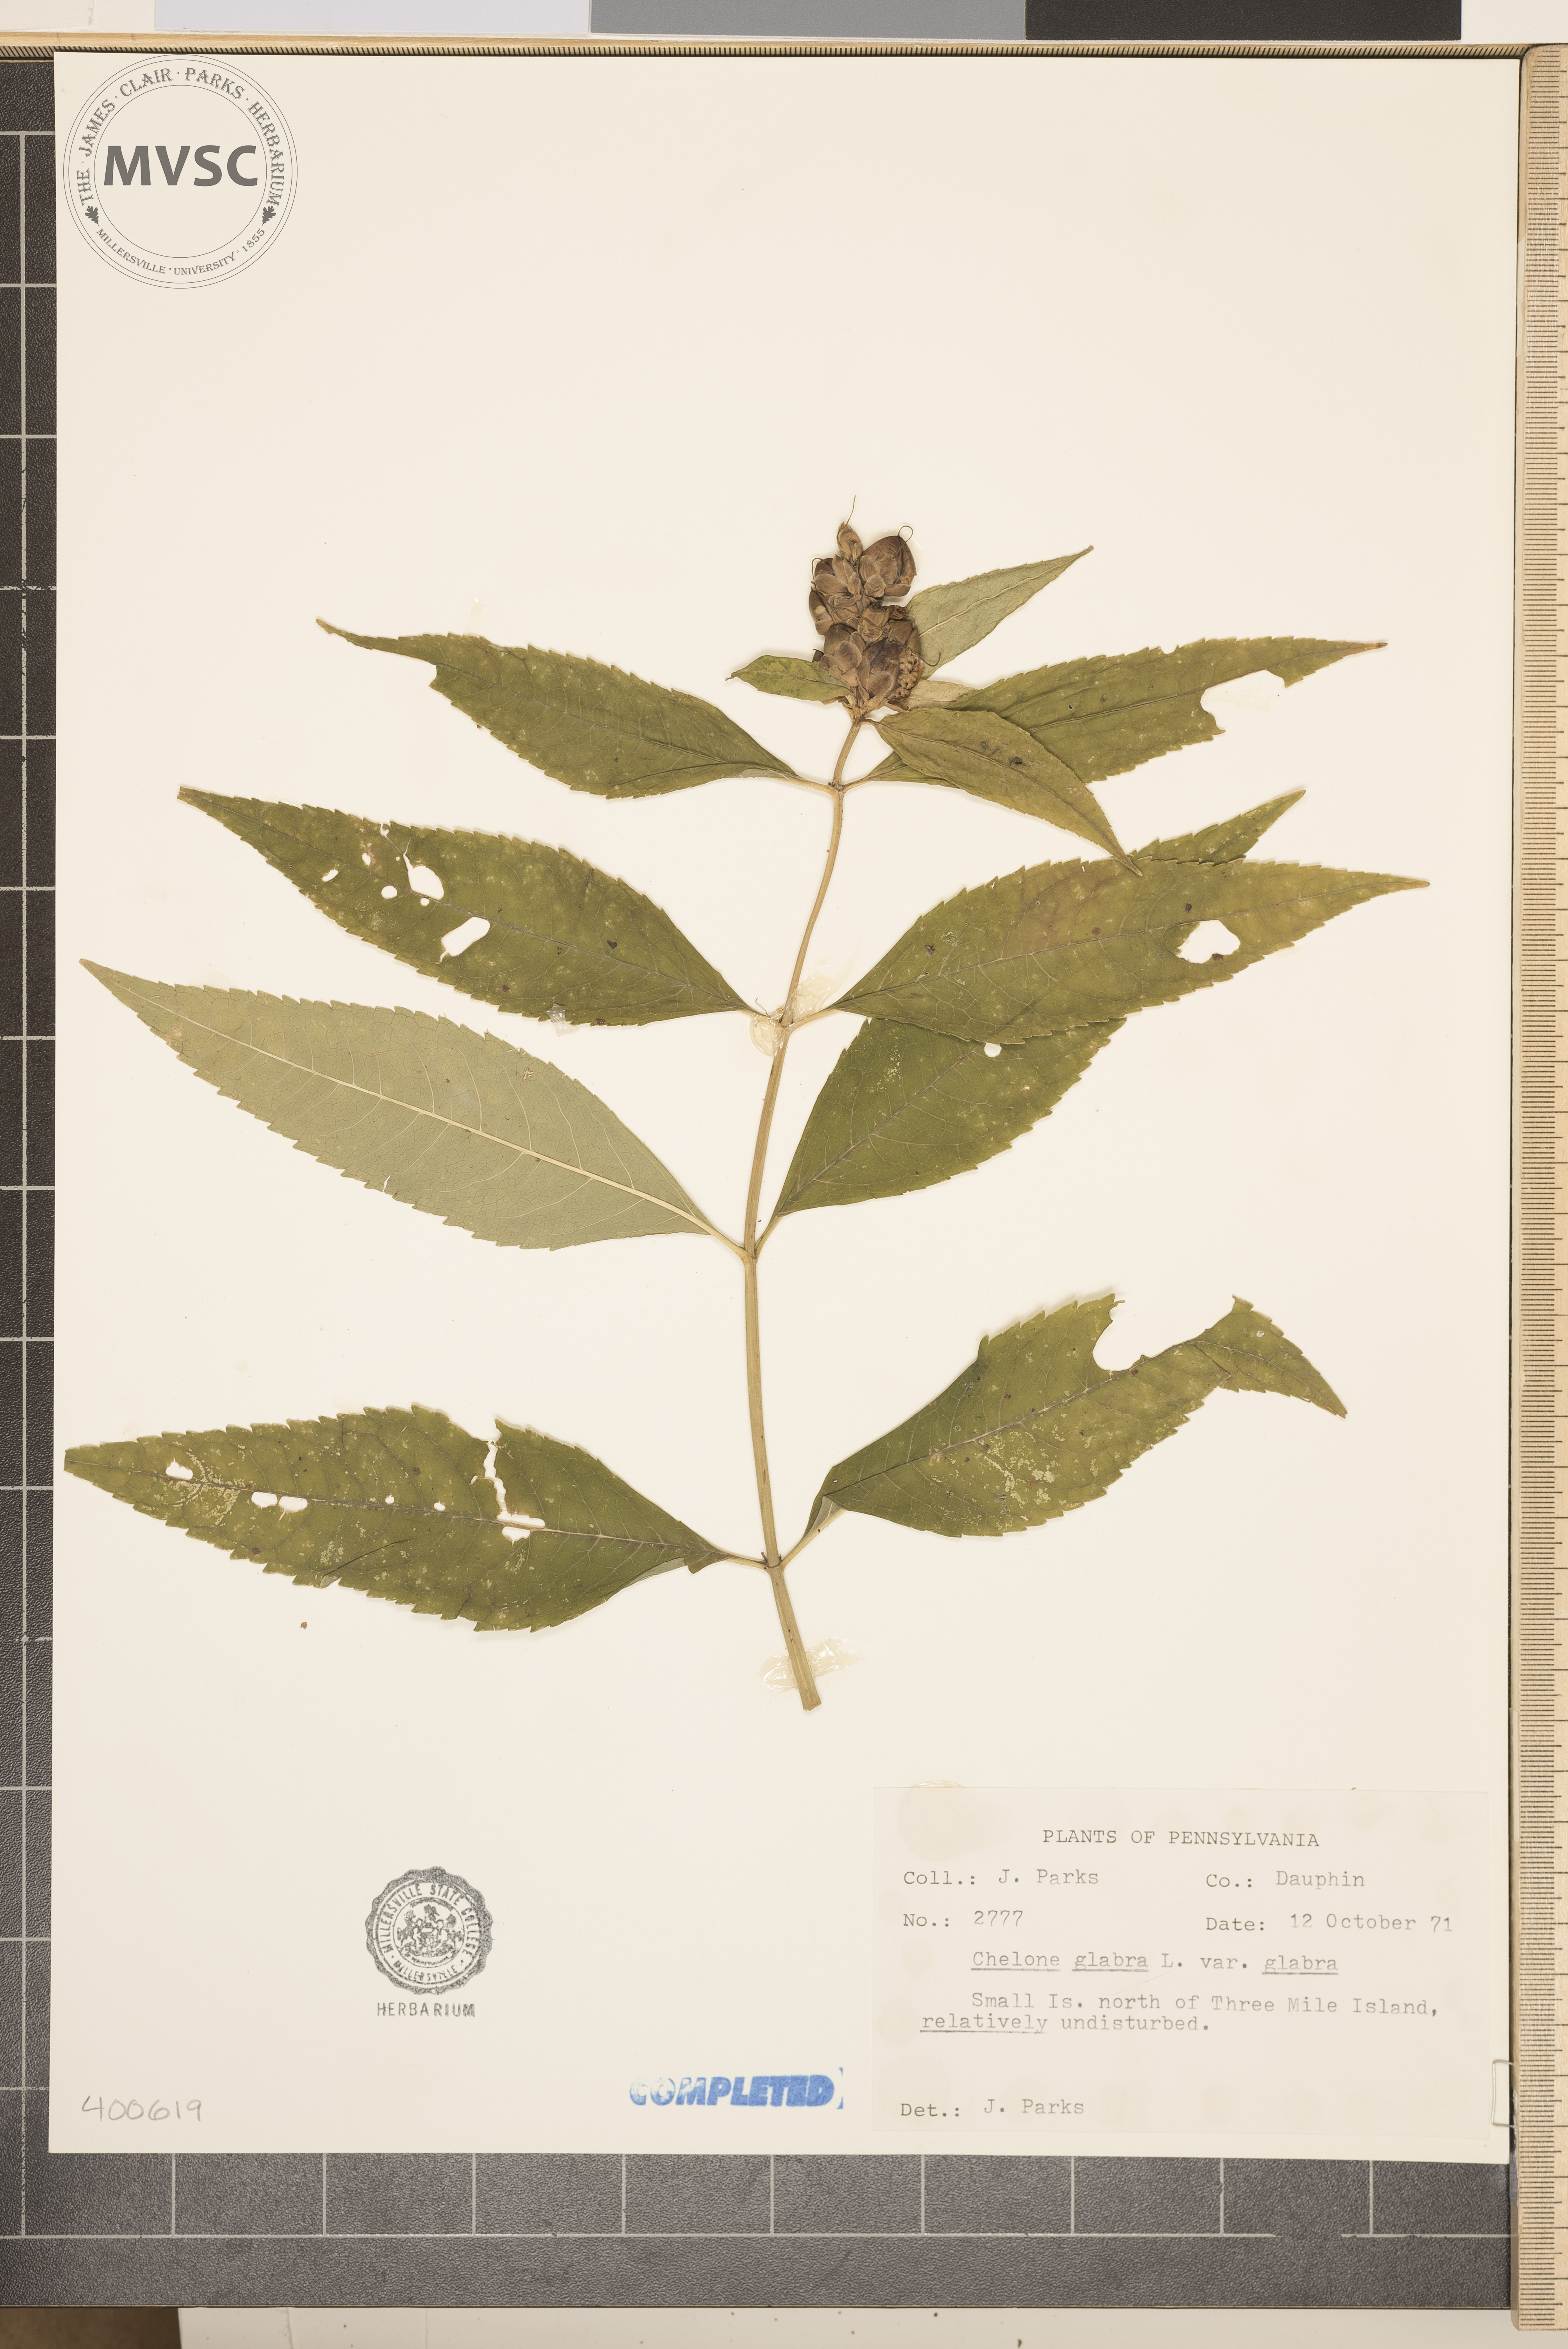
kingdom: Plantae
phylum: Tracheophyta
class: Magnoliopsida
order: Lamiales
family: Plantaginaceae
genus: Chelone
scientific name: Chelone glabra
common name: turtlehead
